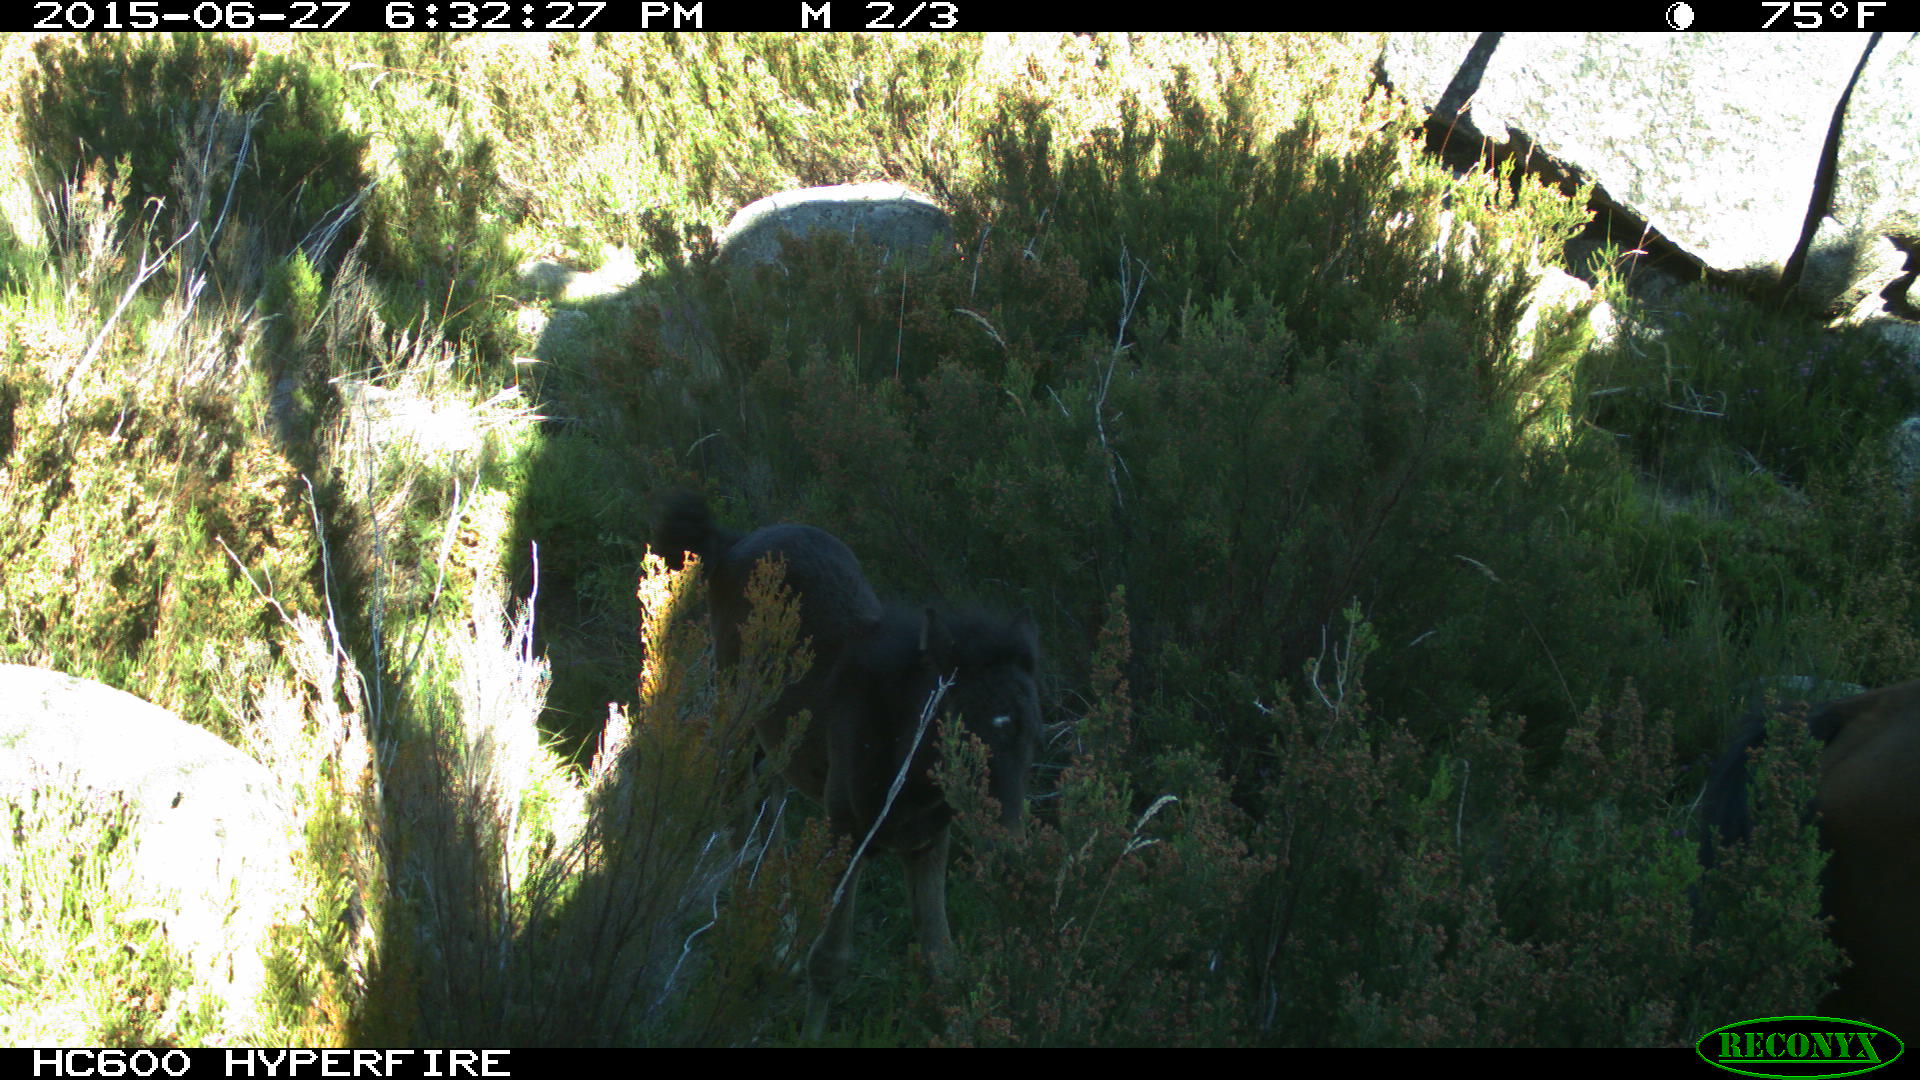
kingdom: Animalia
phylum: Chordata
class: Mammalia
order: Artiodactyla
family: Bovidae
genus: Bos
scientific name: Bos taurus
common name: Domesticated cattle
